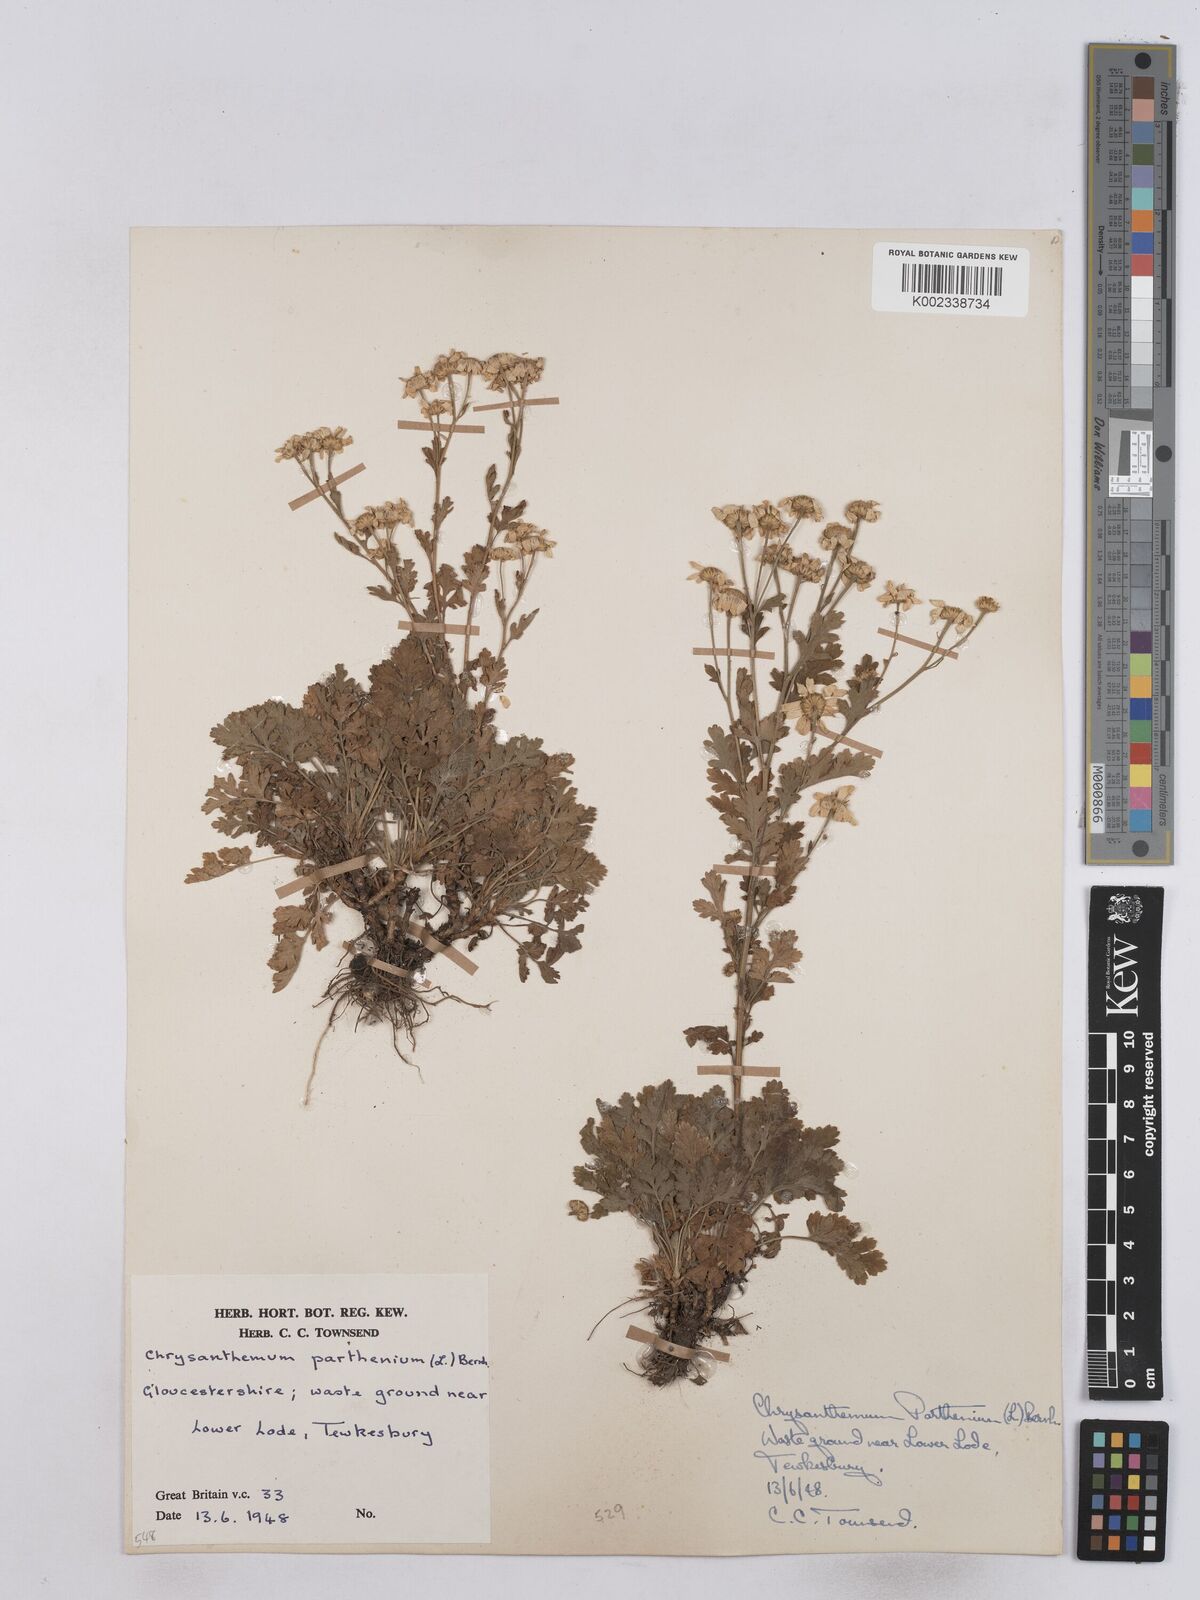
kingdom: Plantae
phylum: Tracheophyta
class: Magnoliopsida
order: Asterales
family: Asteraceae
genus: Tanacetum
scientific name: Tanacetum parthenium
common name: Feverfew
